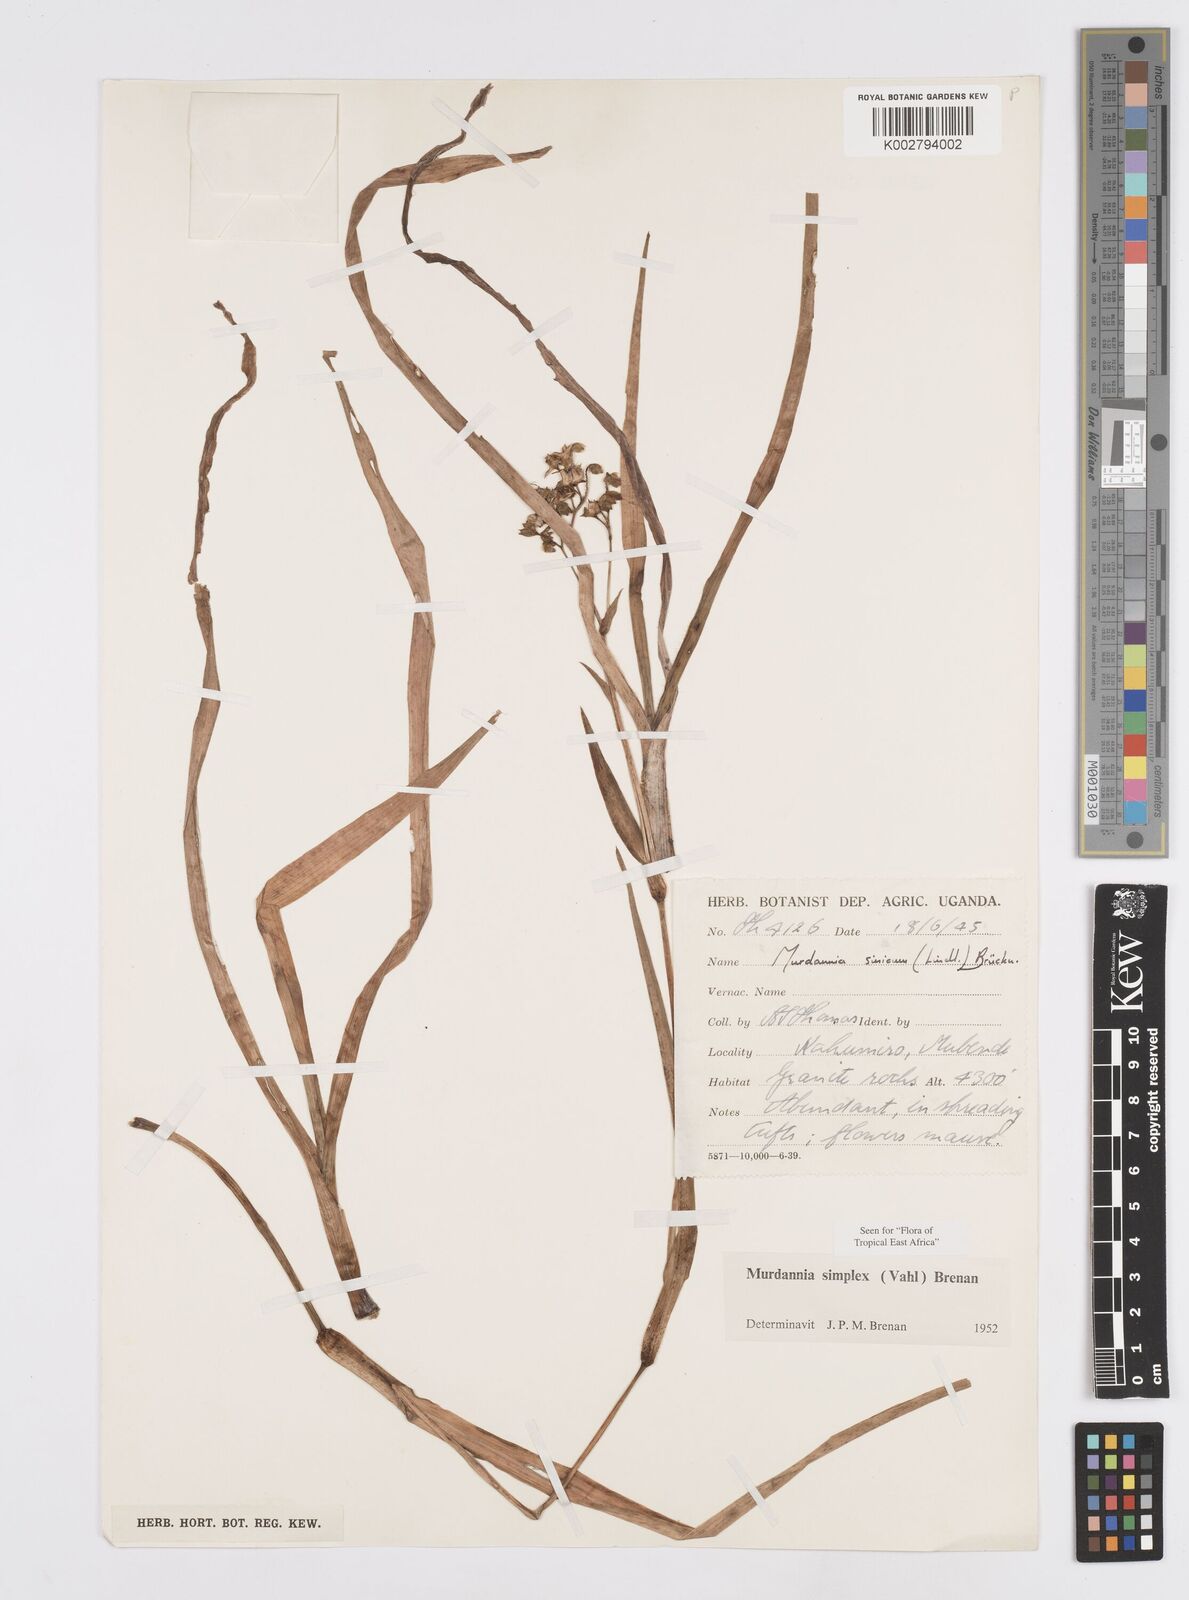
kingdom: Plantae
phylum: Tracheophyta
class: Liliopsida
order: Commelinales
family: Commelinaceae
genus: Murdannia
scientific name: Murdannia simplex
